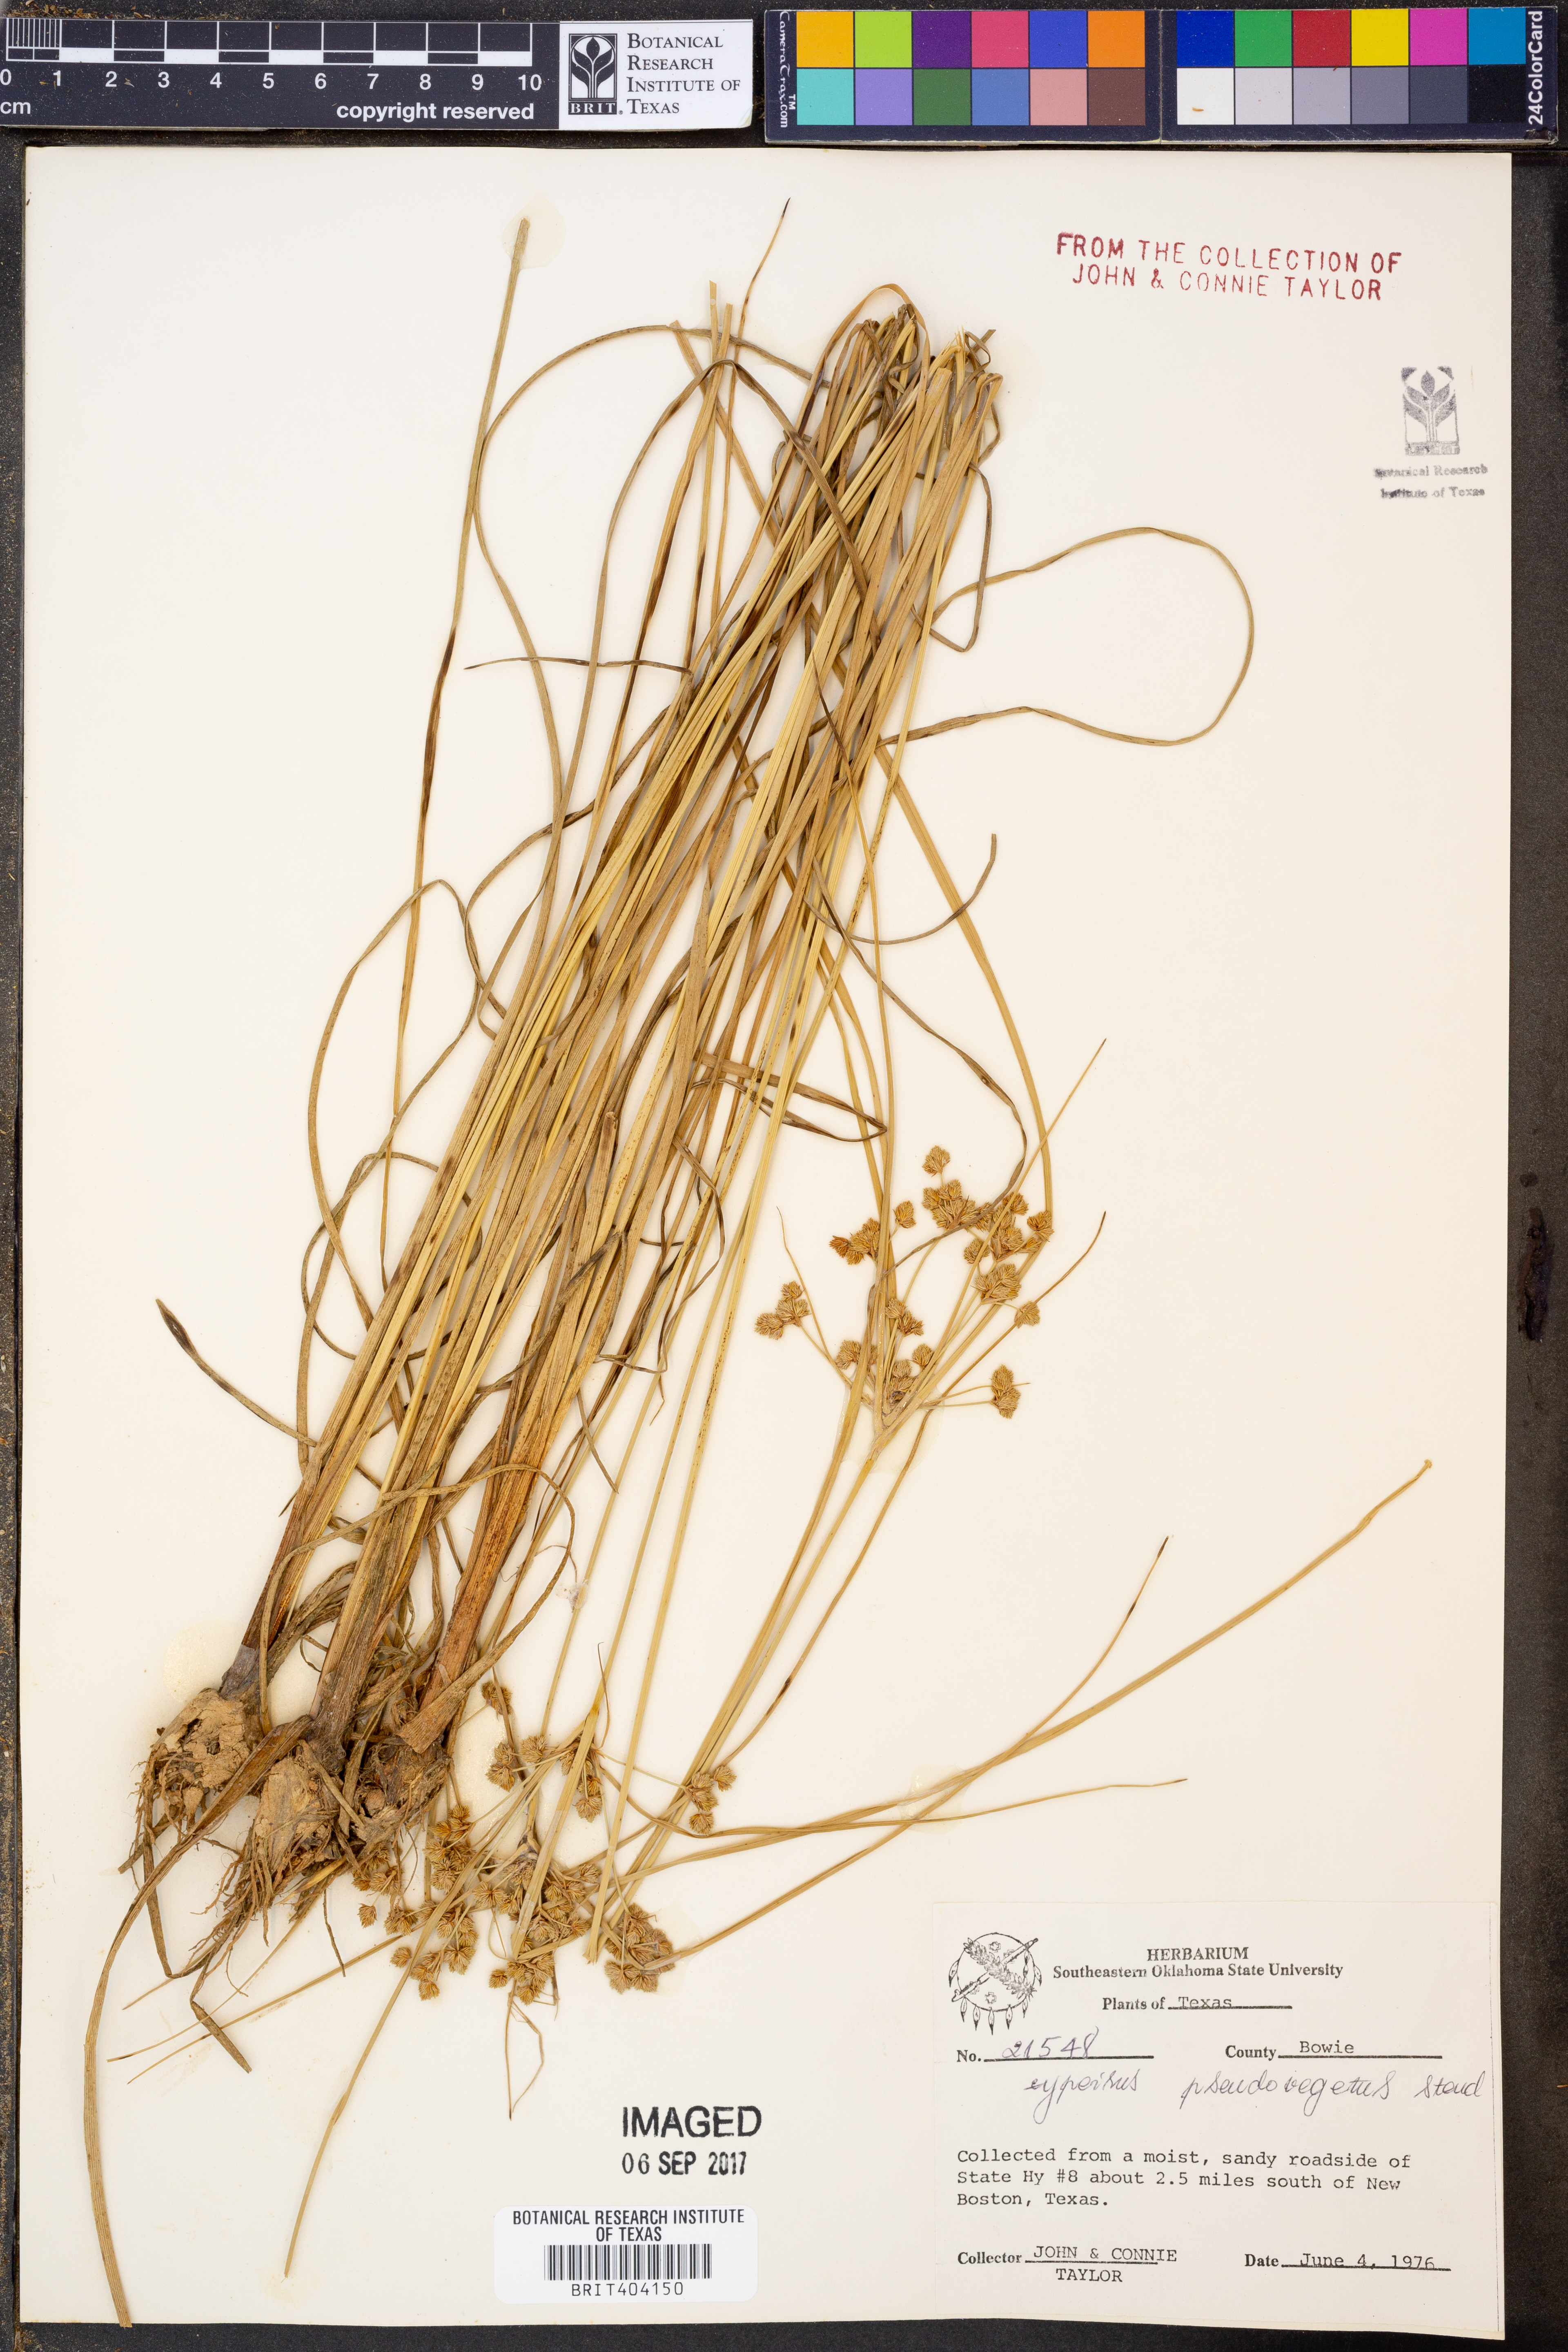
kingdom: Plantae
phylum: Tracheophyta
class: Liliopsida
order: Poales
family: Cyperaceae
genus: Cyperus
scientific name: Cyperus pseudovegetus
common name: Marsh flat sedge
